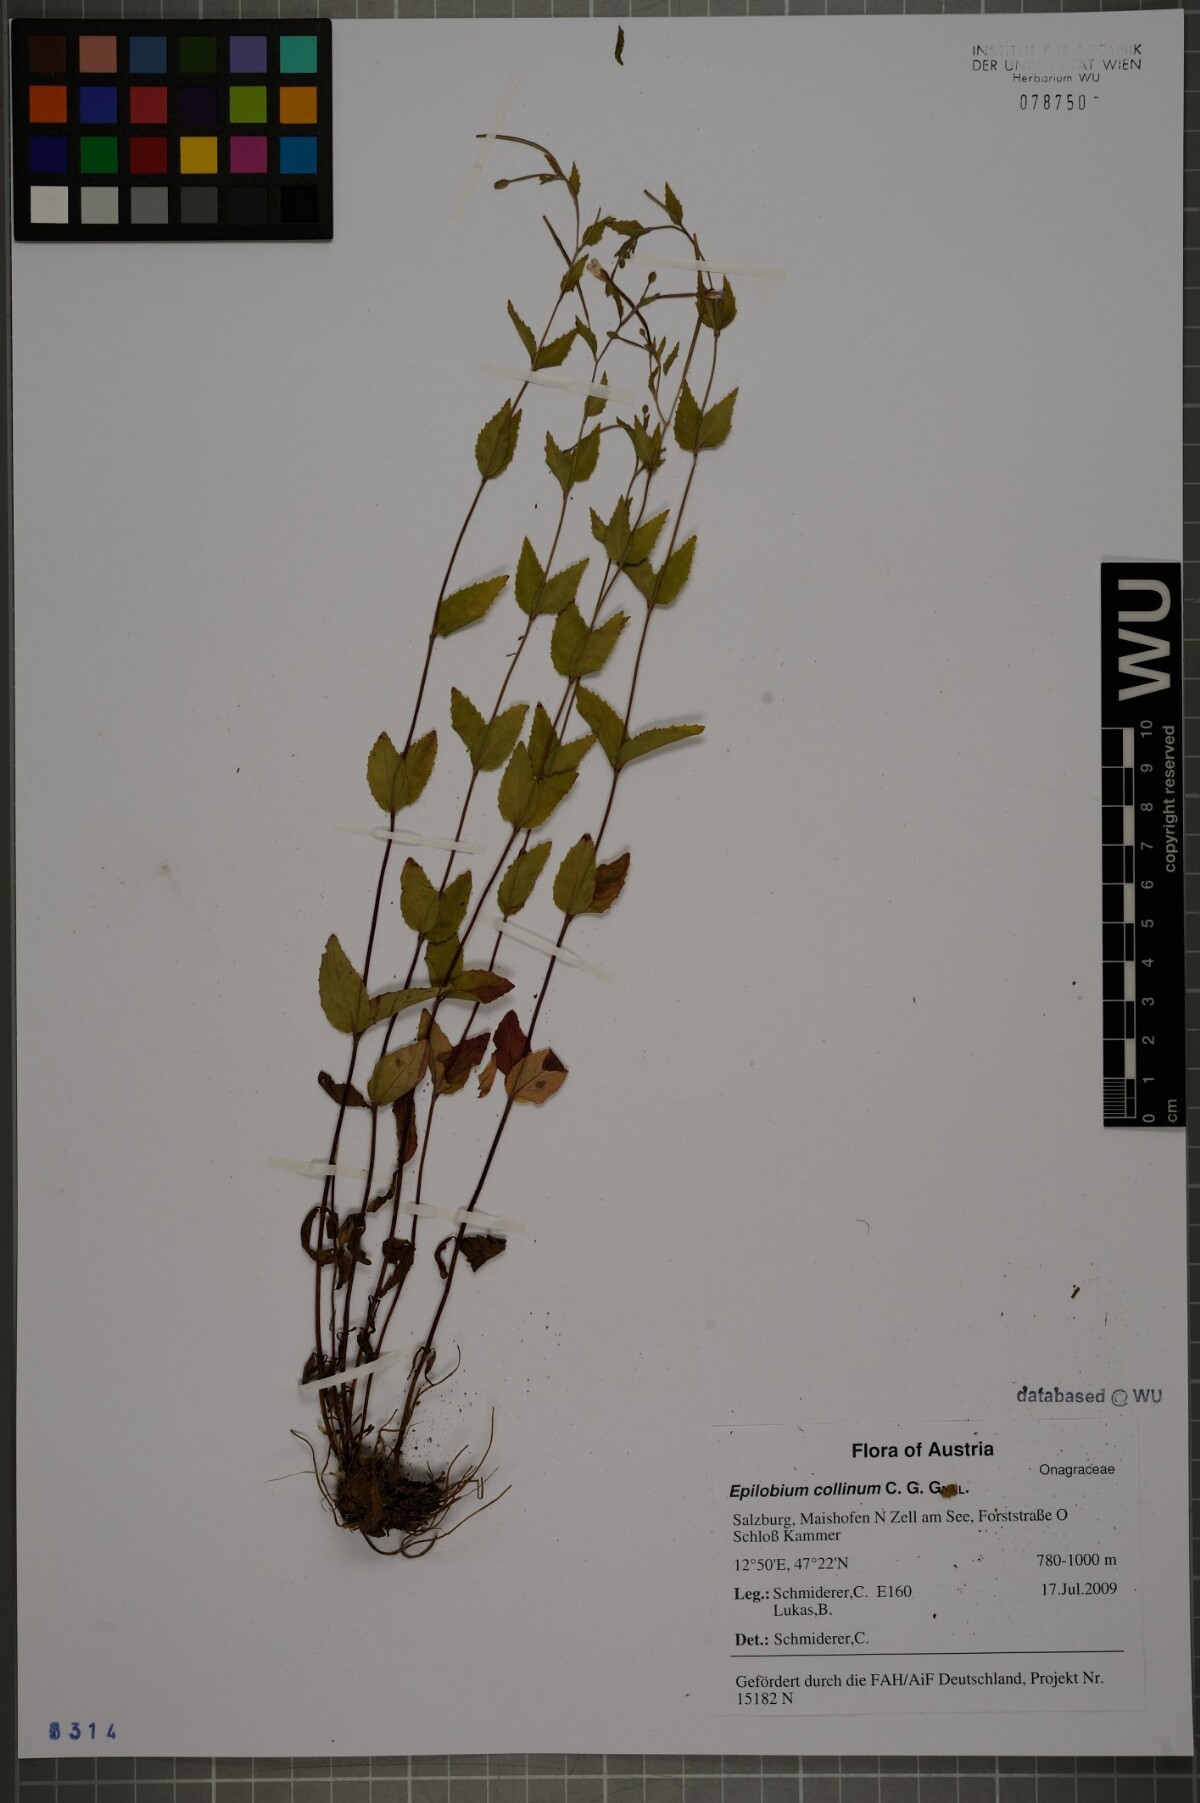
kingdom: Plantae
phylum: Tracheophyta
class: Magnoliopsida
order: Myrtales
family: Onagraceae
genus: Epilobium
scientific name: Epilobium collinum
